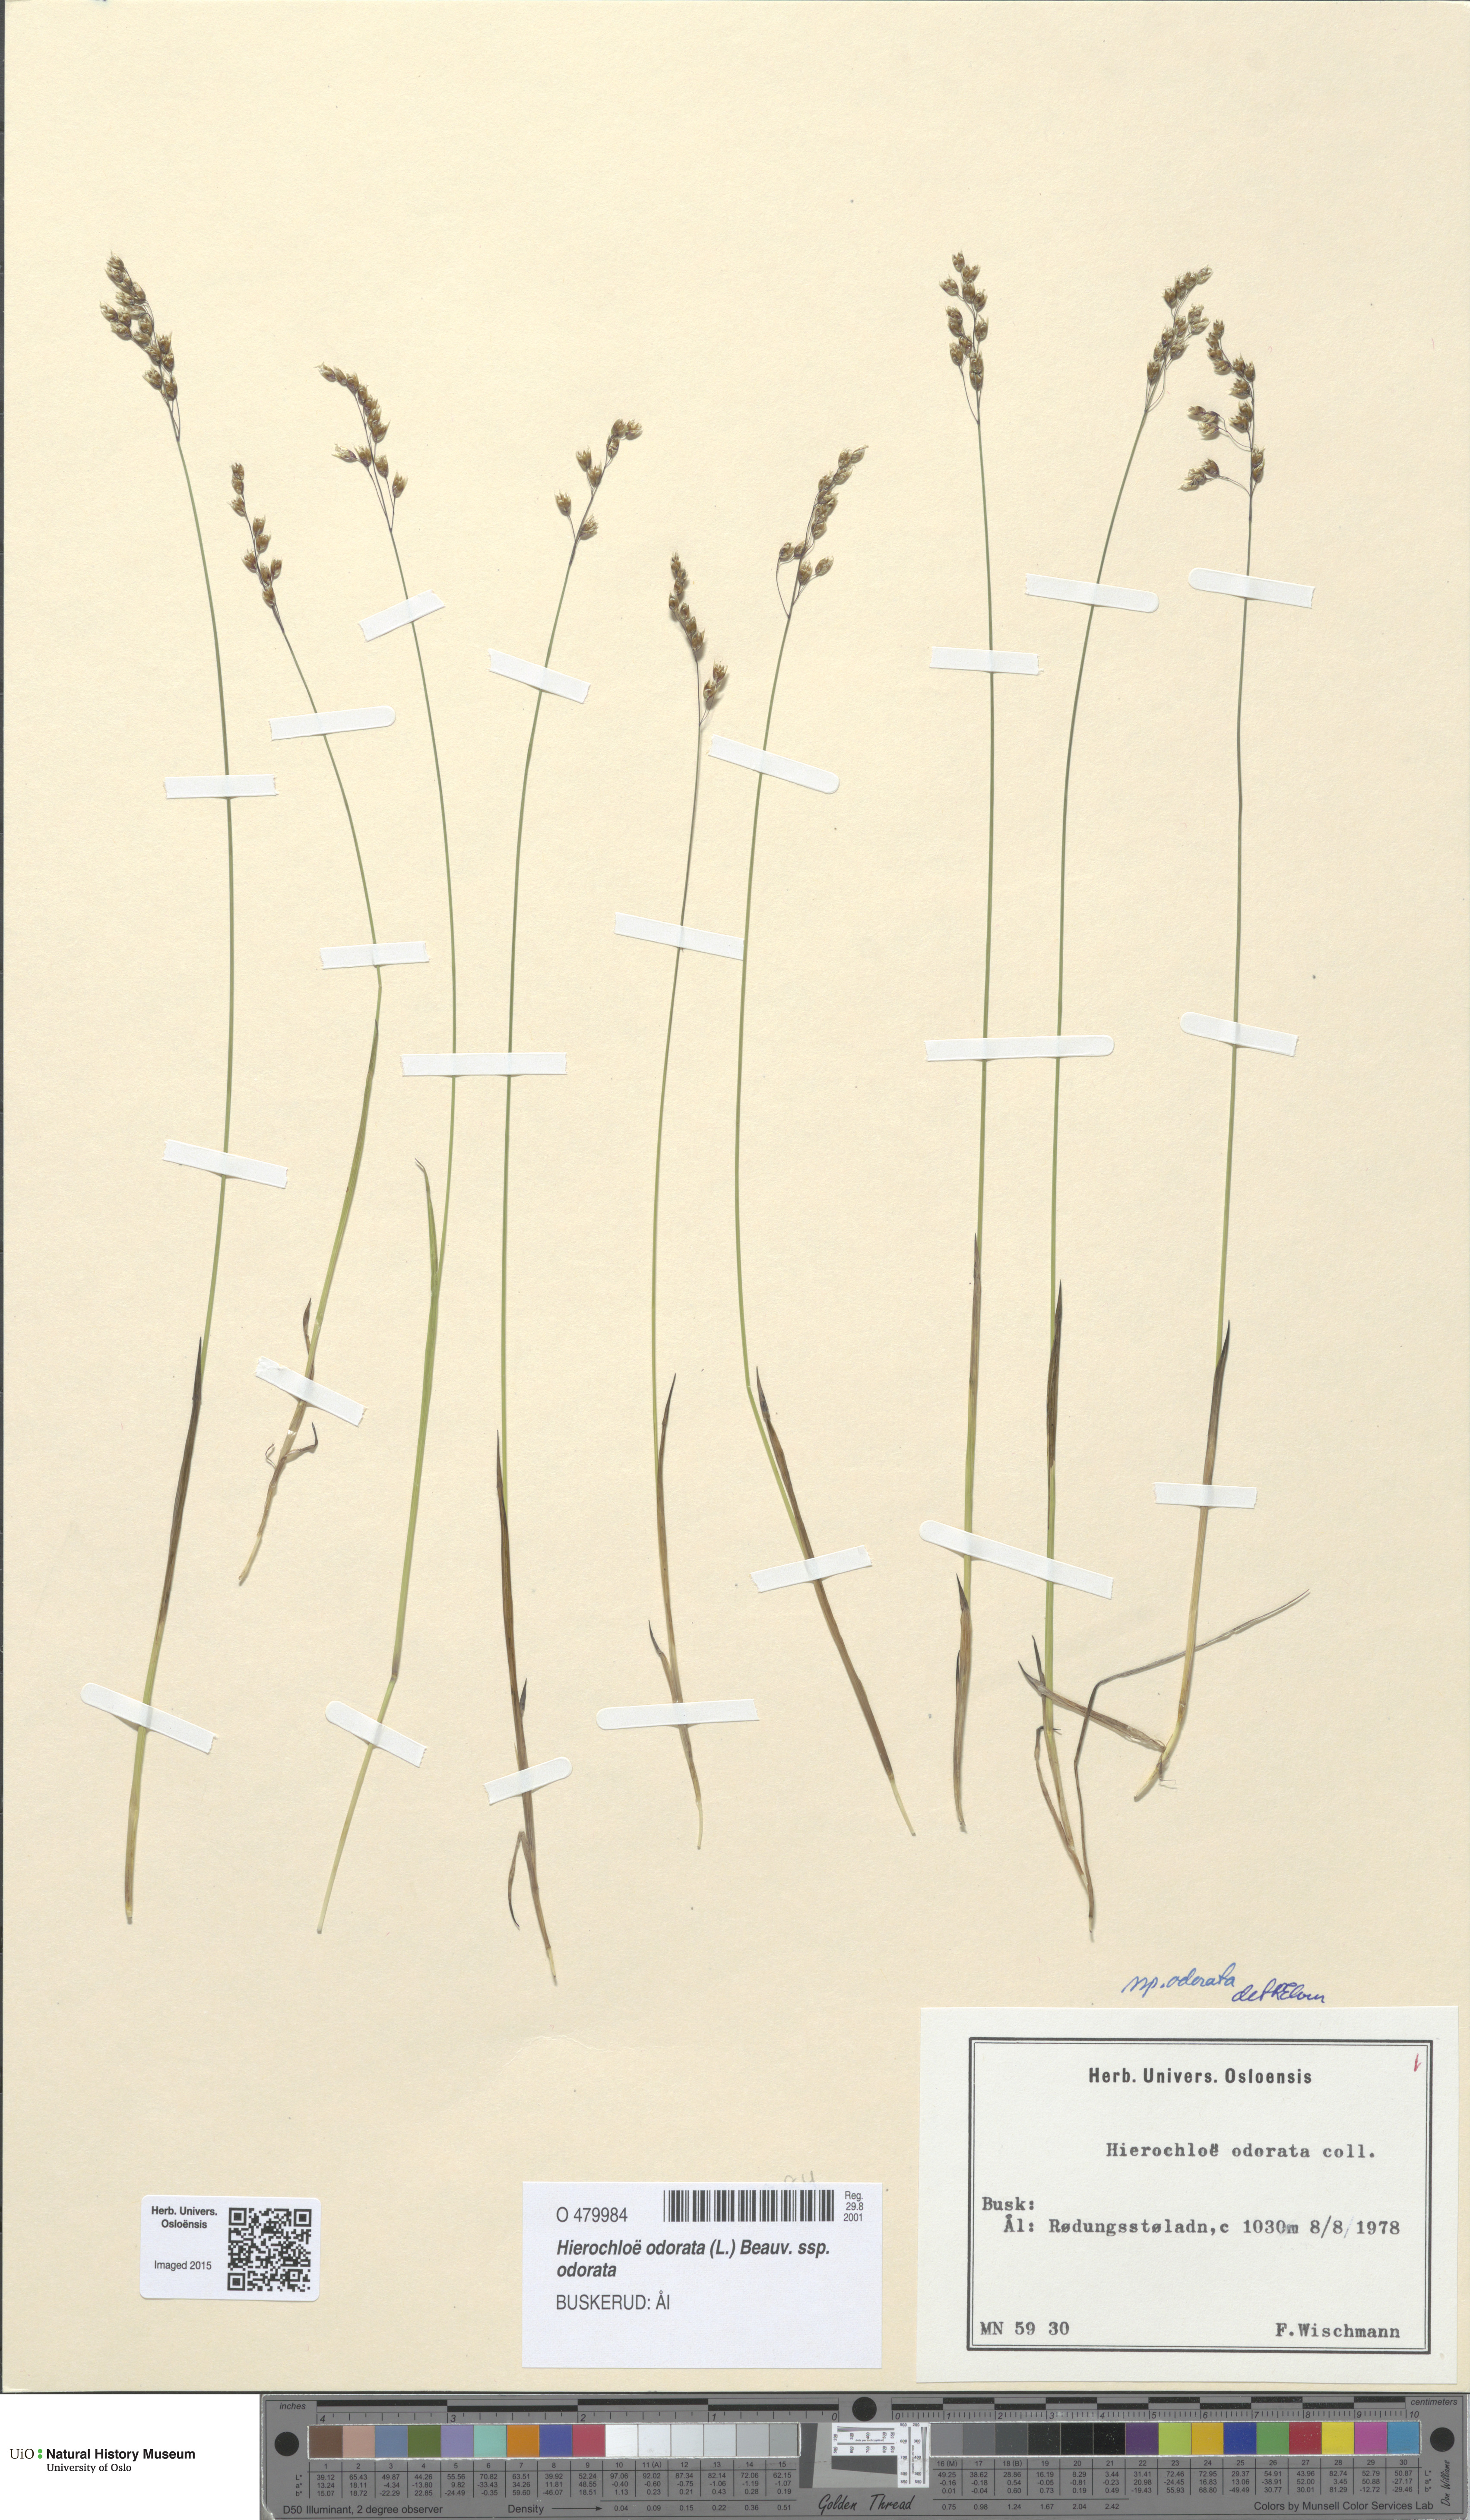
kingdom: Plantae
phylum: Tracheophyta
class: Liliopsida
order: Poales
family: Poaceae
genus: Anthoxanthum
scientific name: Anthoxanthum nitens
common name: Holy grass
